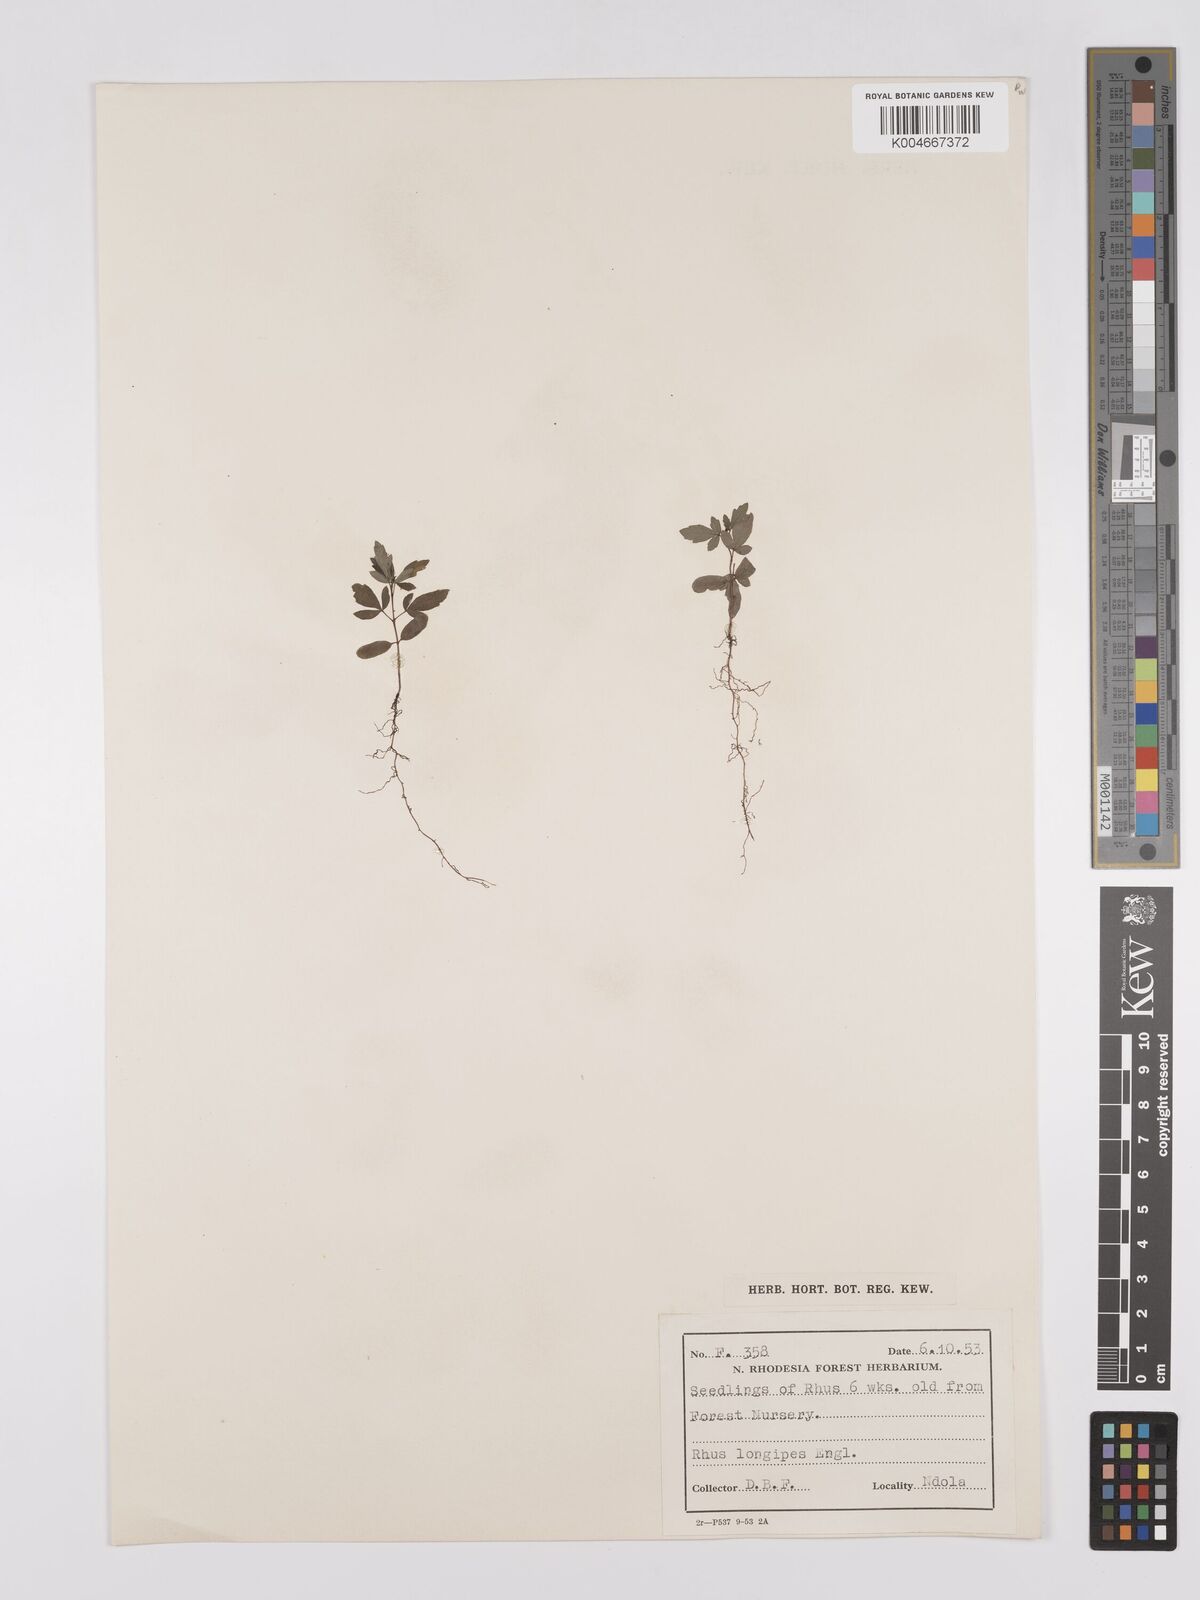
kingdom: Plantae
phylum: Tracheophyta
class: Magnoliopsida
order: Sapindales
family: Anacardiaceae
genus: Searsia
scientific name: Searsia longipes
